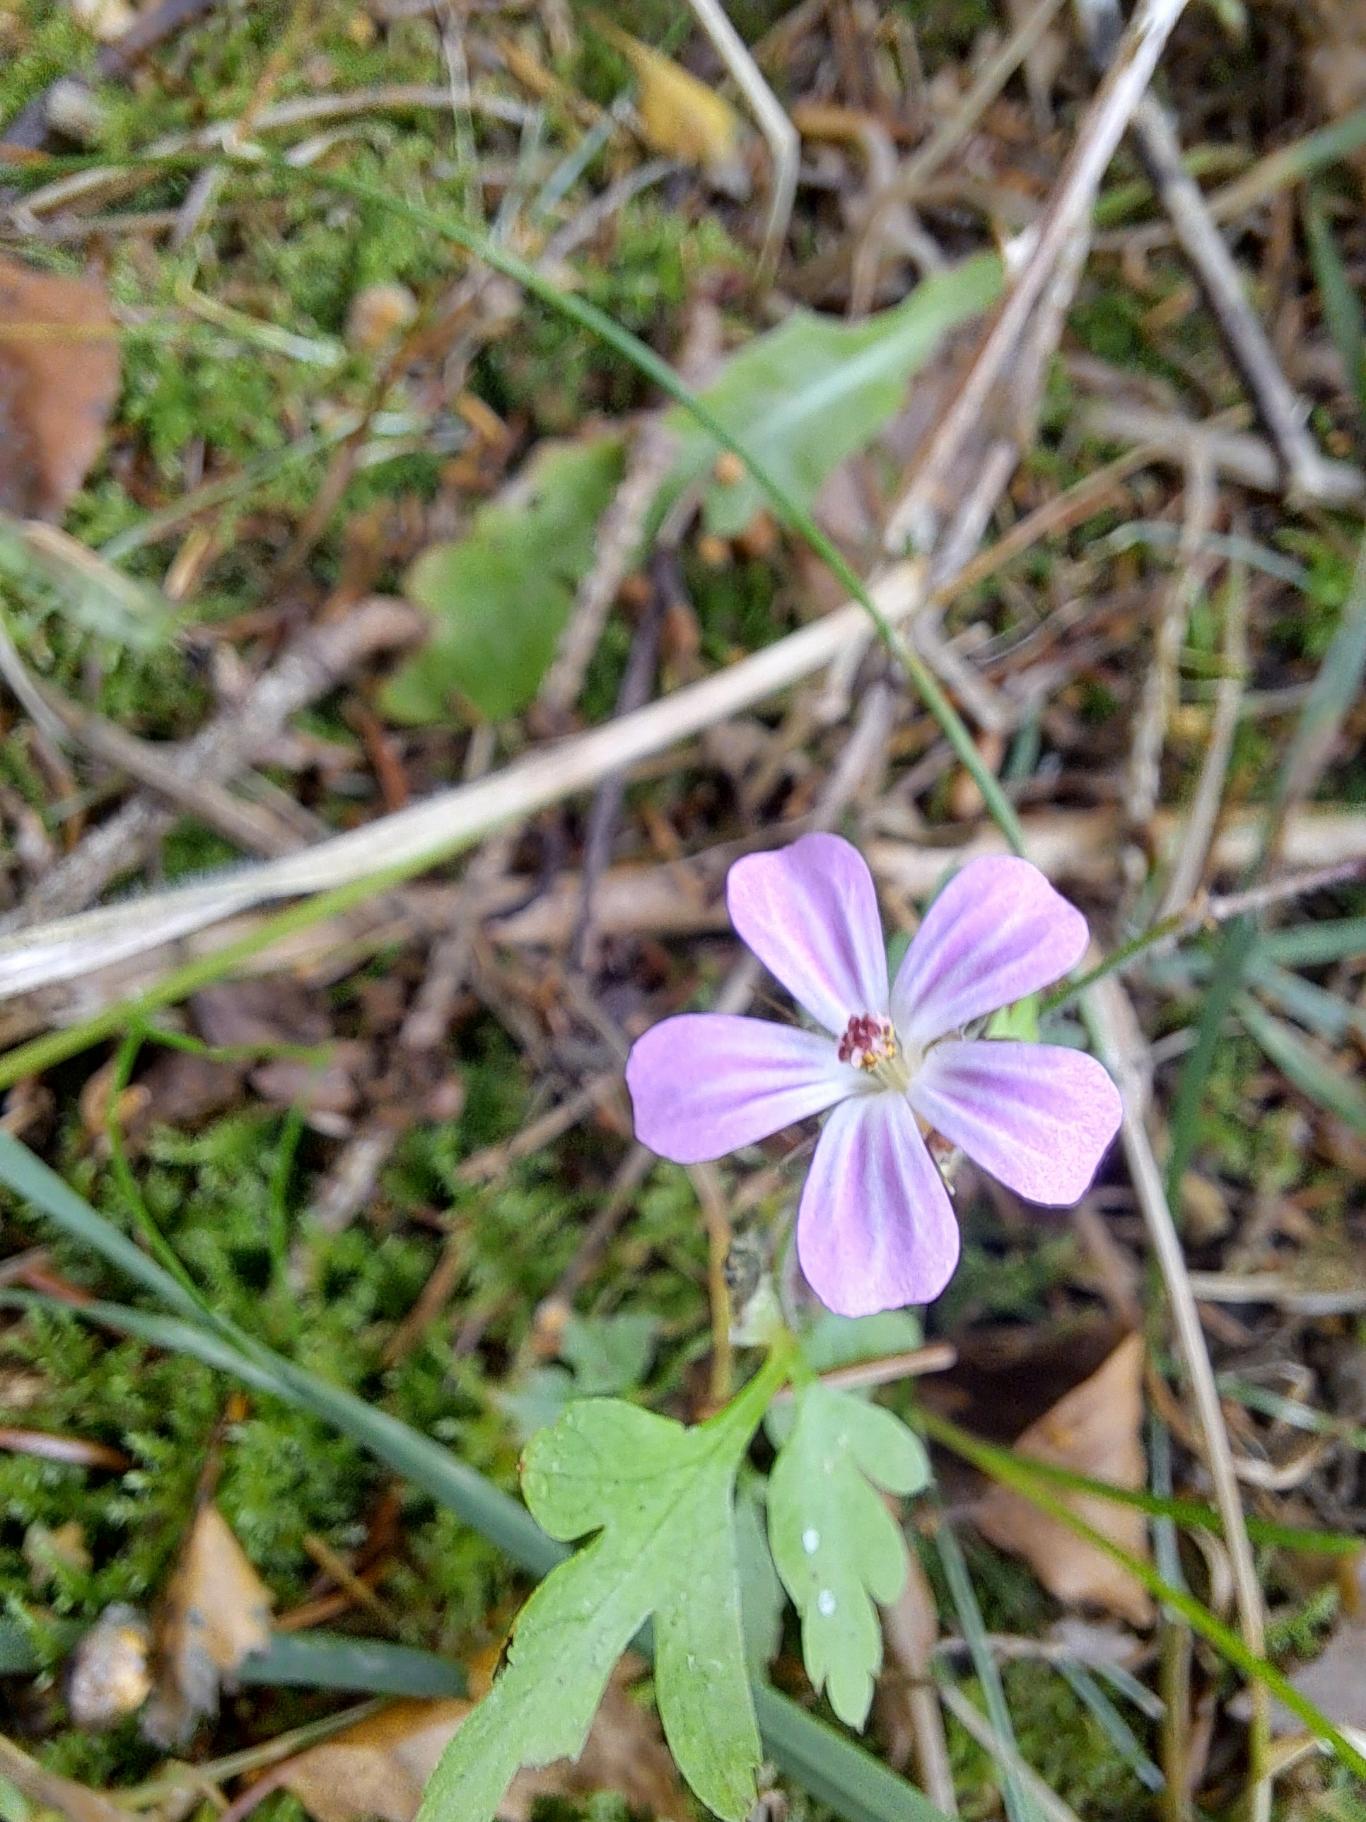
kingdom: Plantae
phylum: Tracheophyta
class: Magnoliopsida
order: Geraniales
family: Geraniaceae
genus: Geranium
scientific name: Geranium robertianum
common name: Stinkende storkenæb
